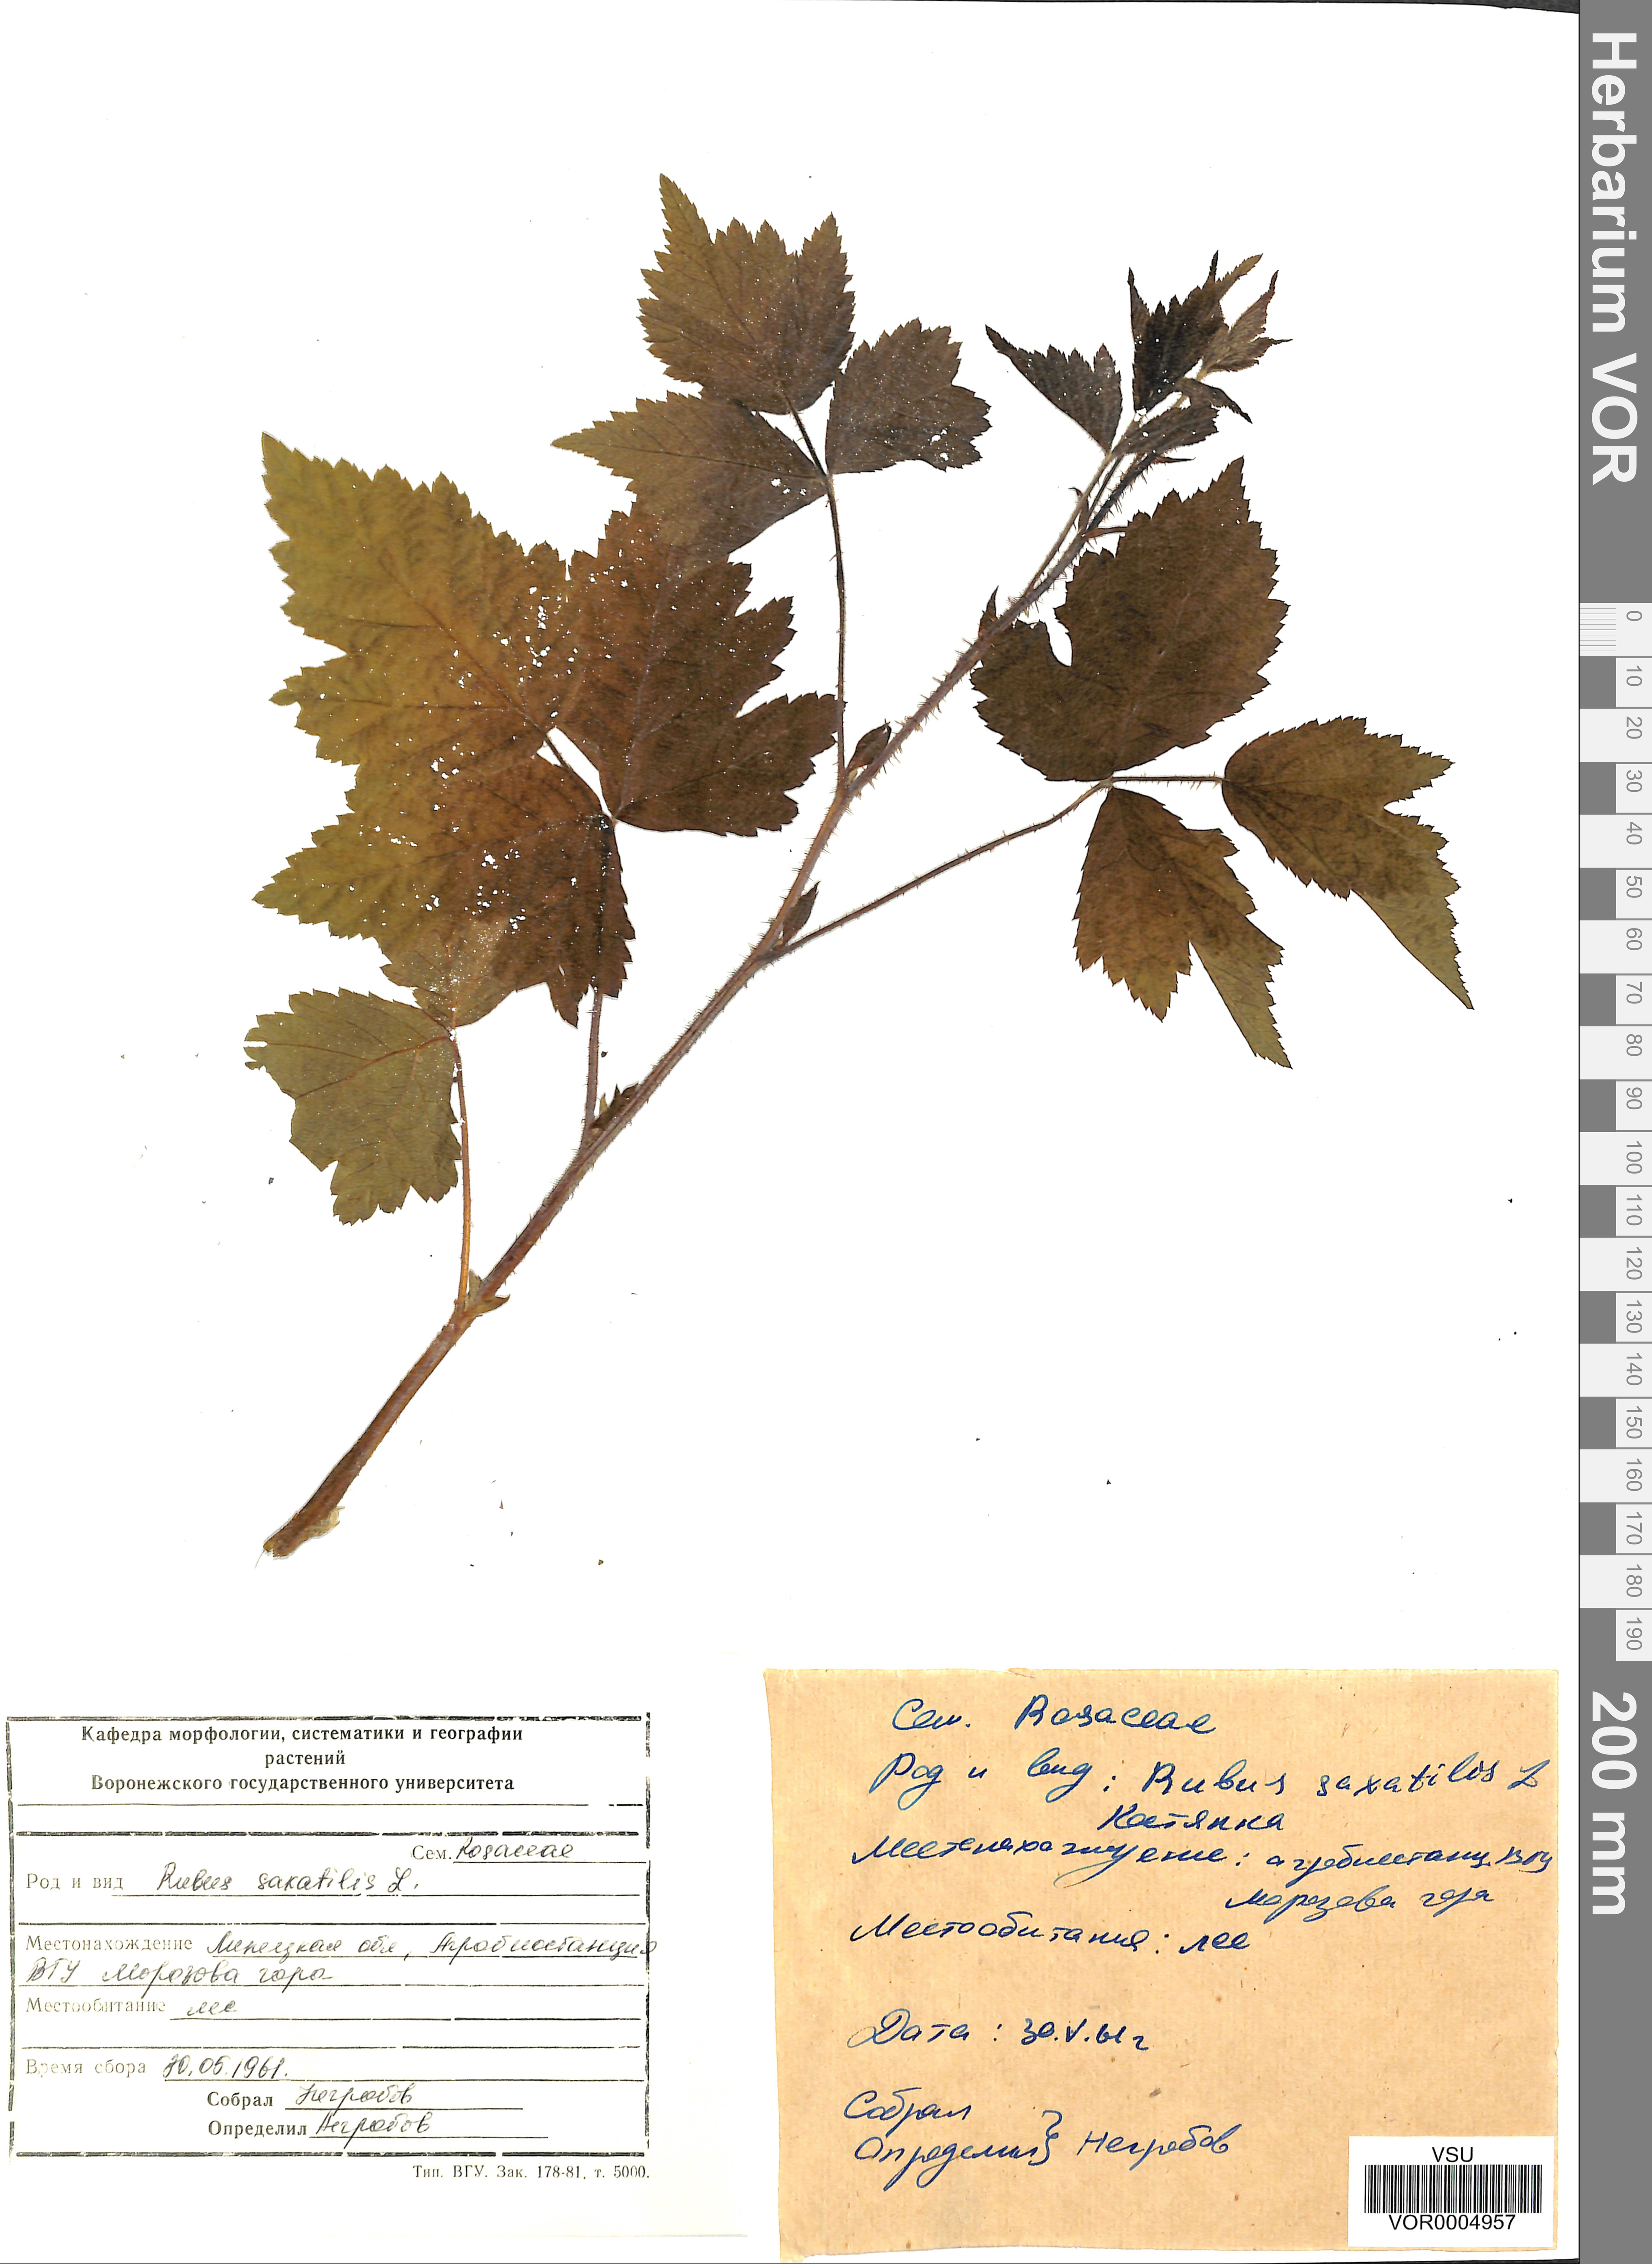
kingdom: Plantae
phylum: Tracheophyta
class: Magnoliopsida
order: Rosales
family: Rosaceae
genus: Rubus
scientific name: Rubus caesius
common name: Dewberry
